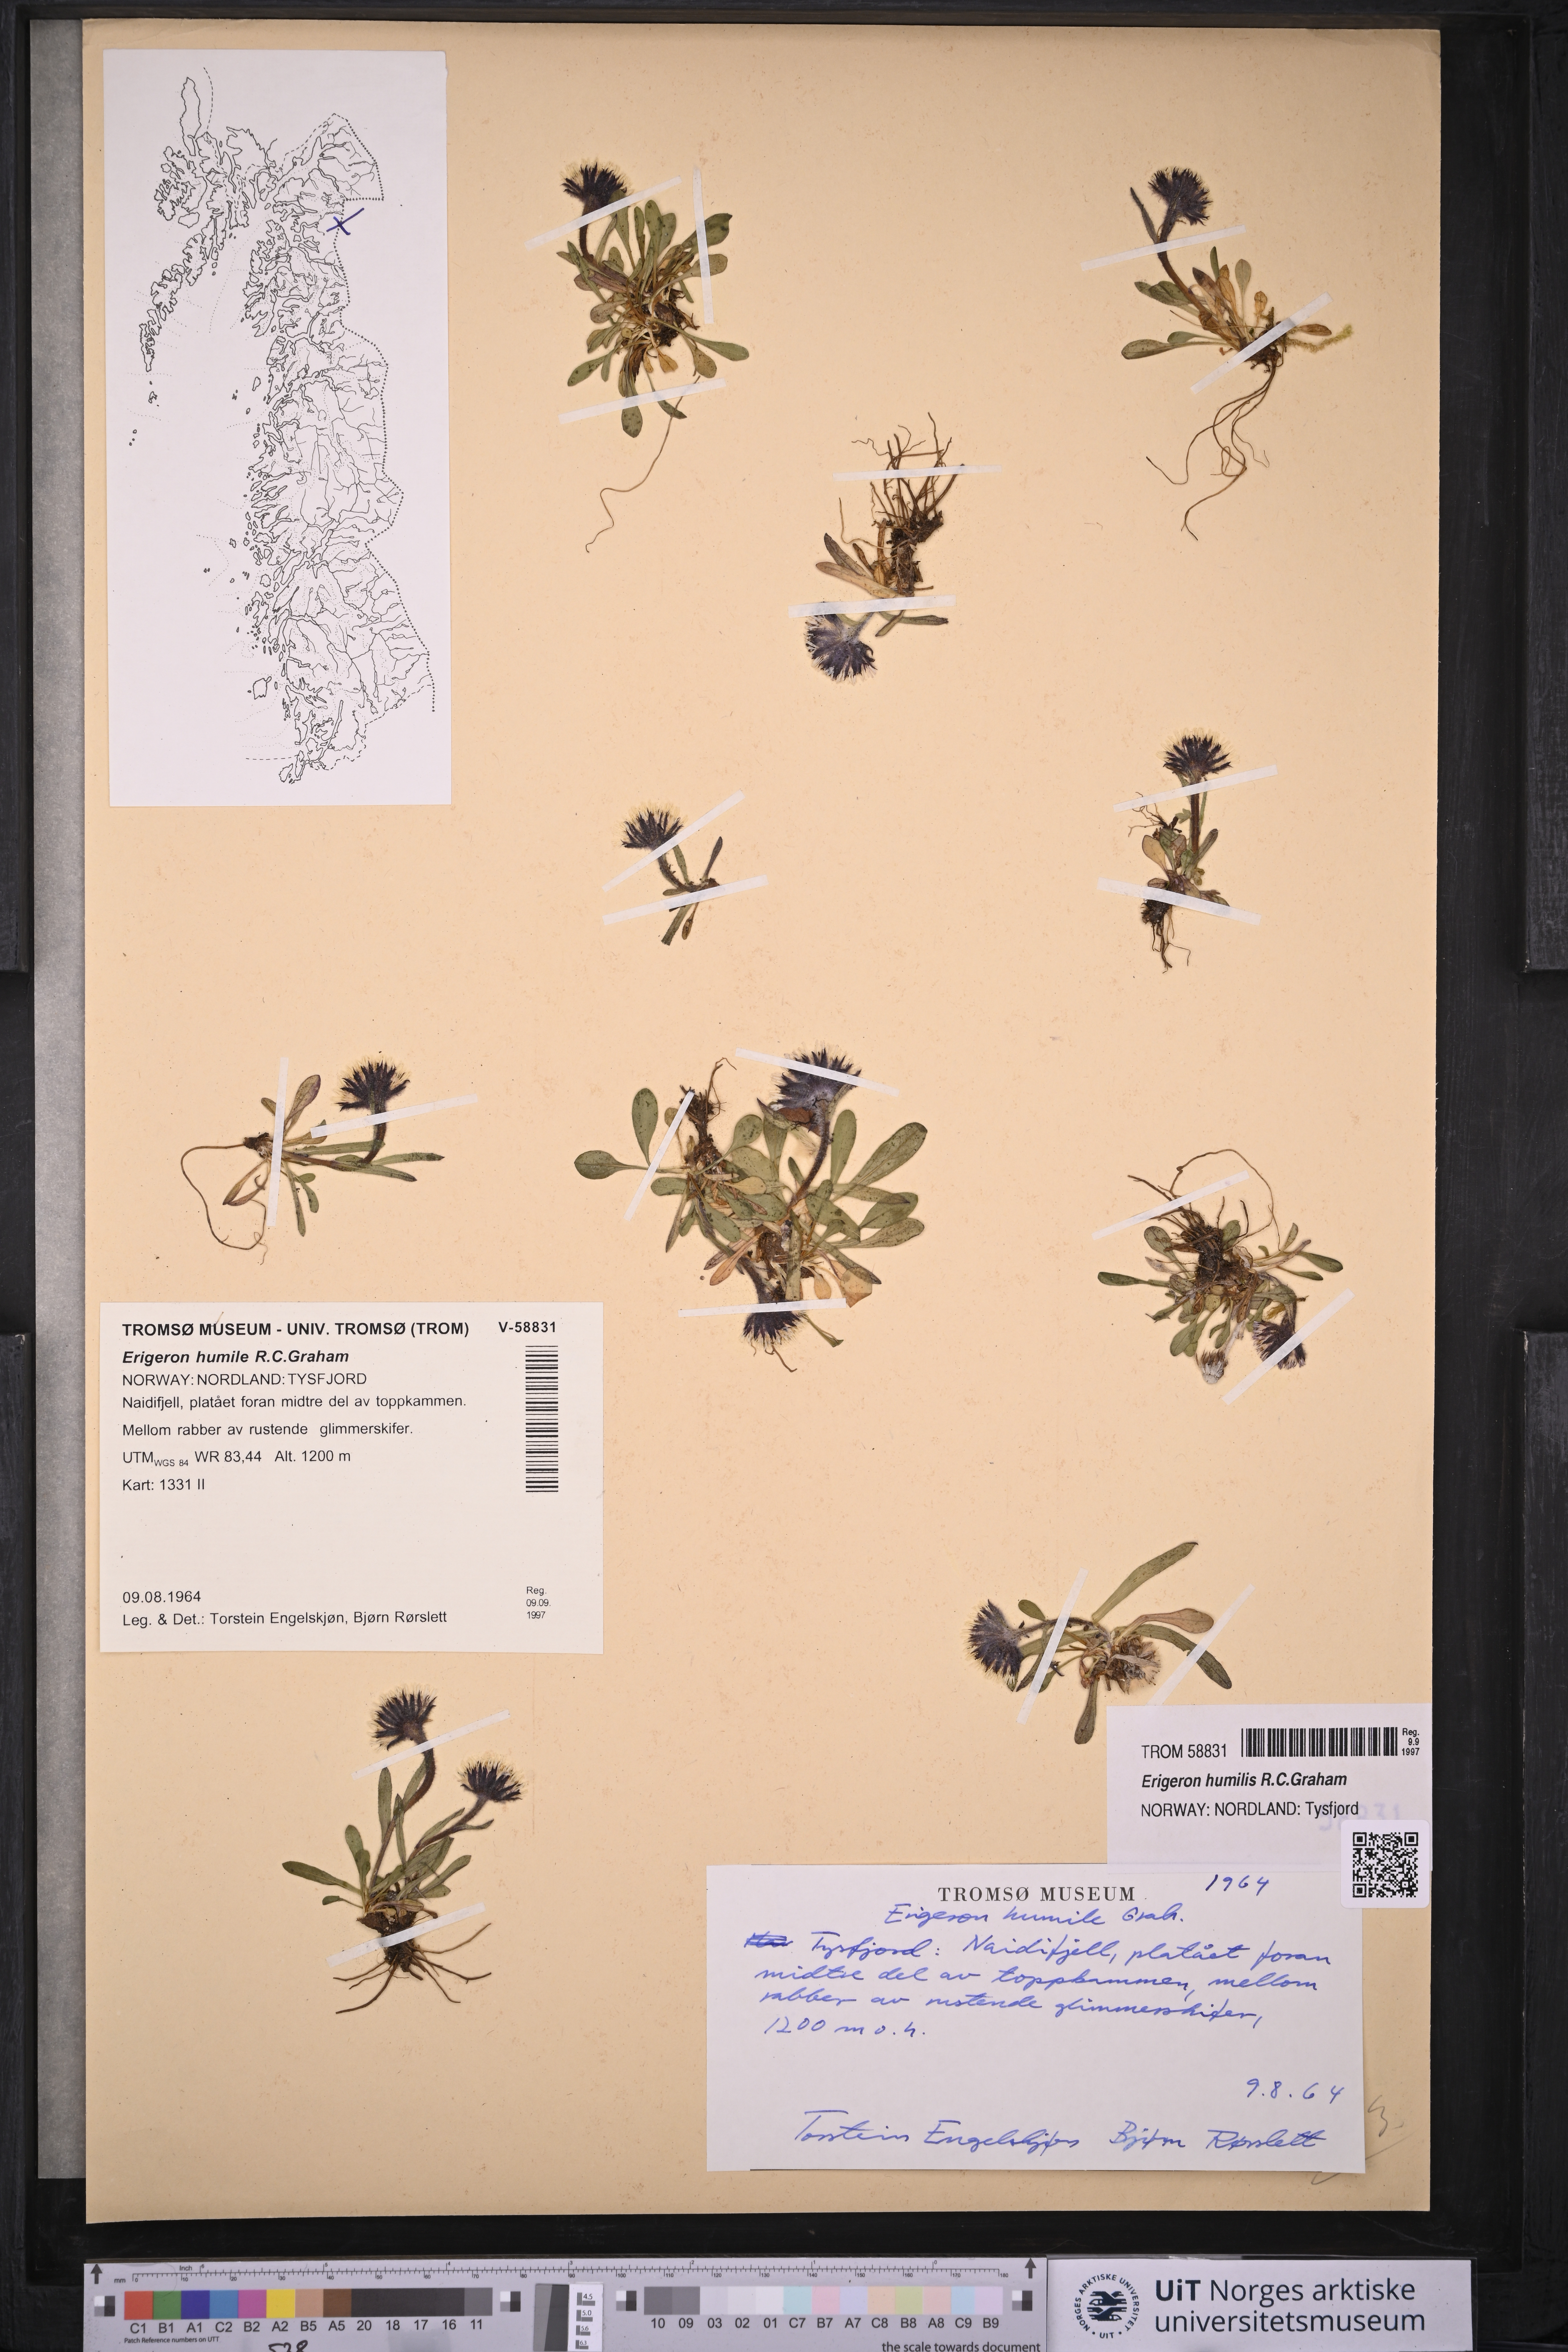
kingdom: Plantae
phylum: Tracheophyta
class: Magnoliopsida
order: Asterales
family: Asteraceae
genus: Erigeron
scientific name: Erigeron humilis
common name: Arctic-alpine fleabane
